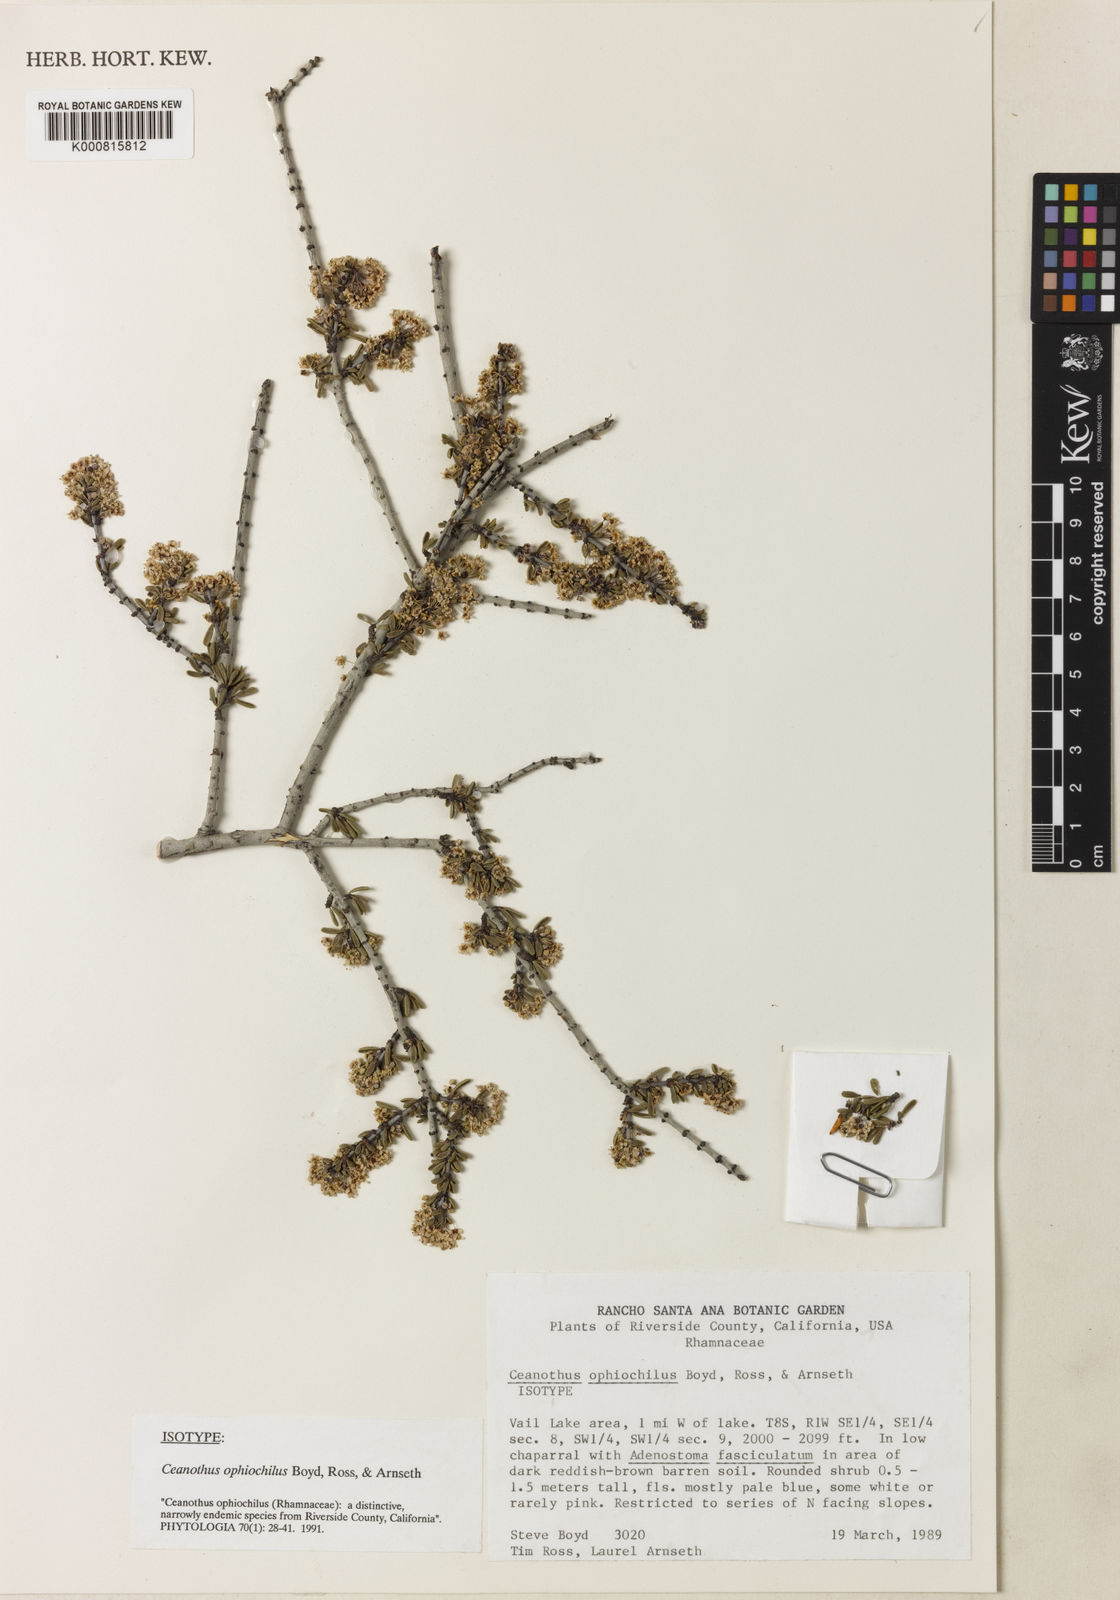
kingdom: Plantae
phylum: Tracheophyta
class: Magnoliopsida
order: Rosales
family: Rhamnaceae
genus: Ceanothus
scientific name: Ceanothus
